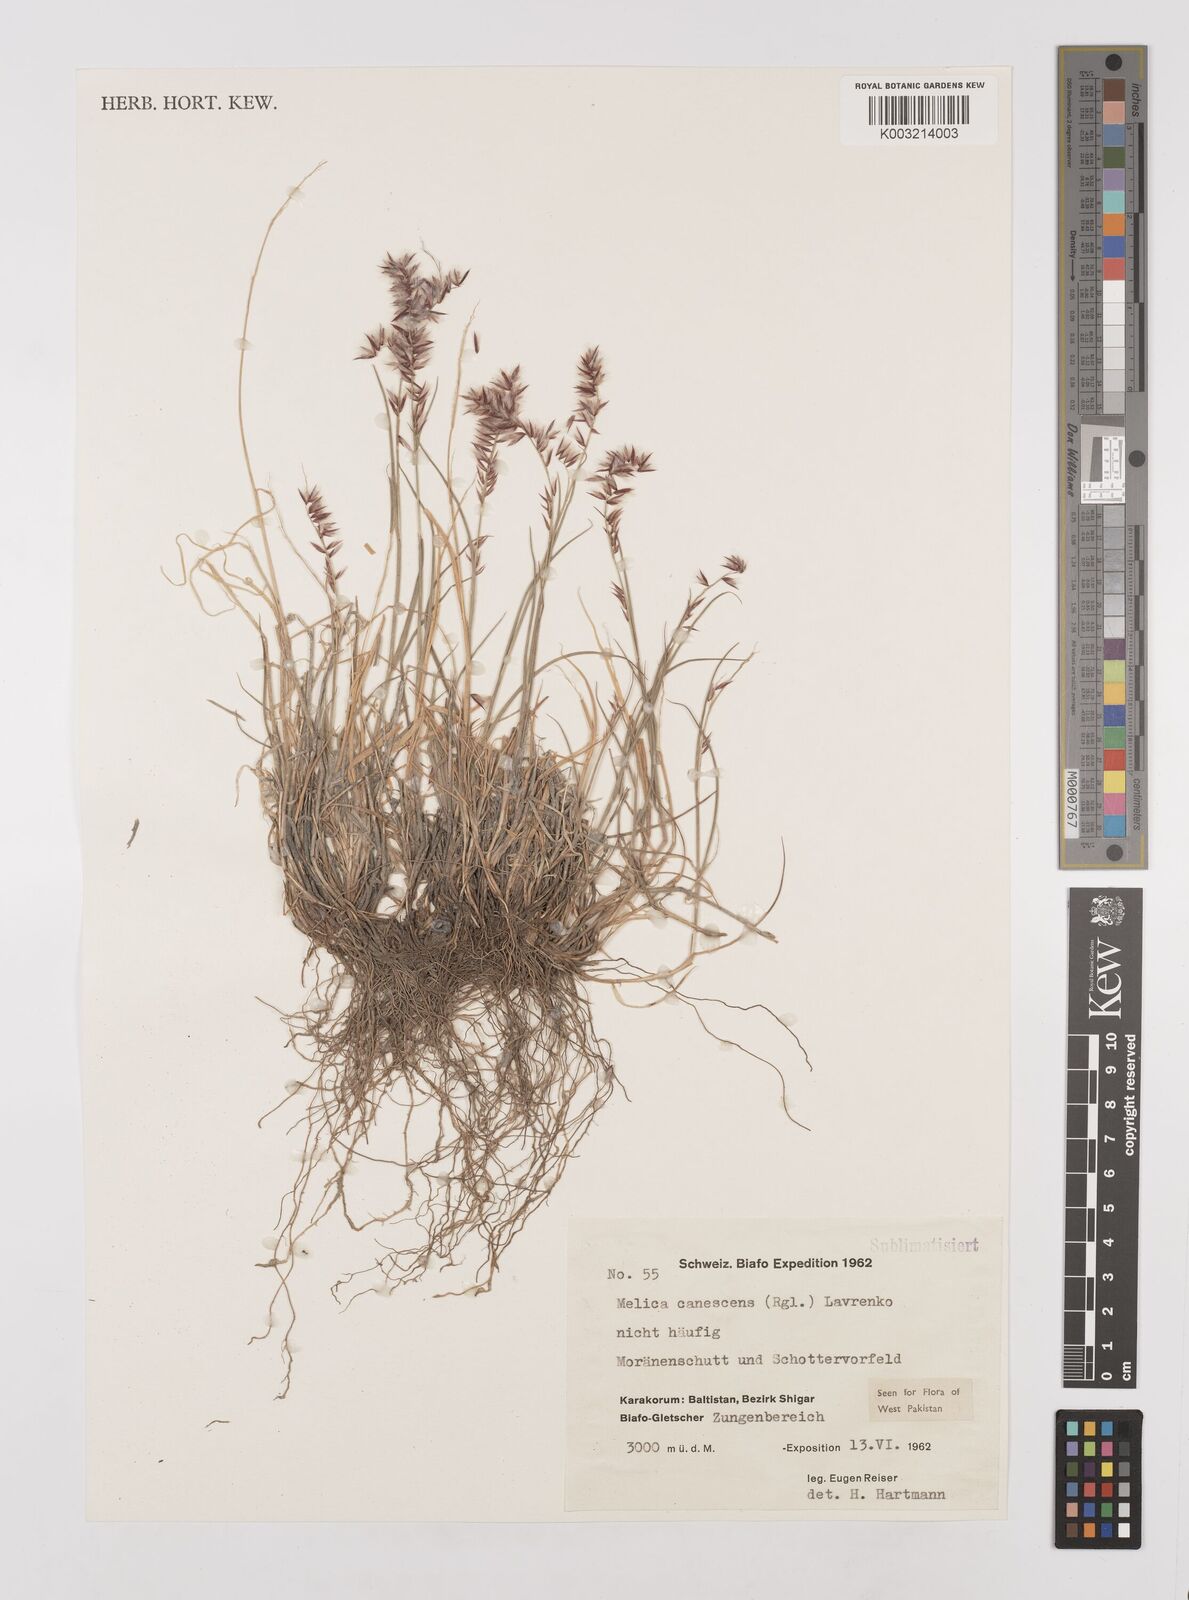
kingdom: Plantae
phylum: Tracheophyta
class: Liliopsida
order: Poales
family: Poaceae
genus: Melica
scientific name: Melica persica
